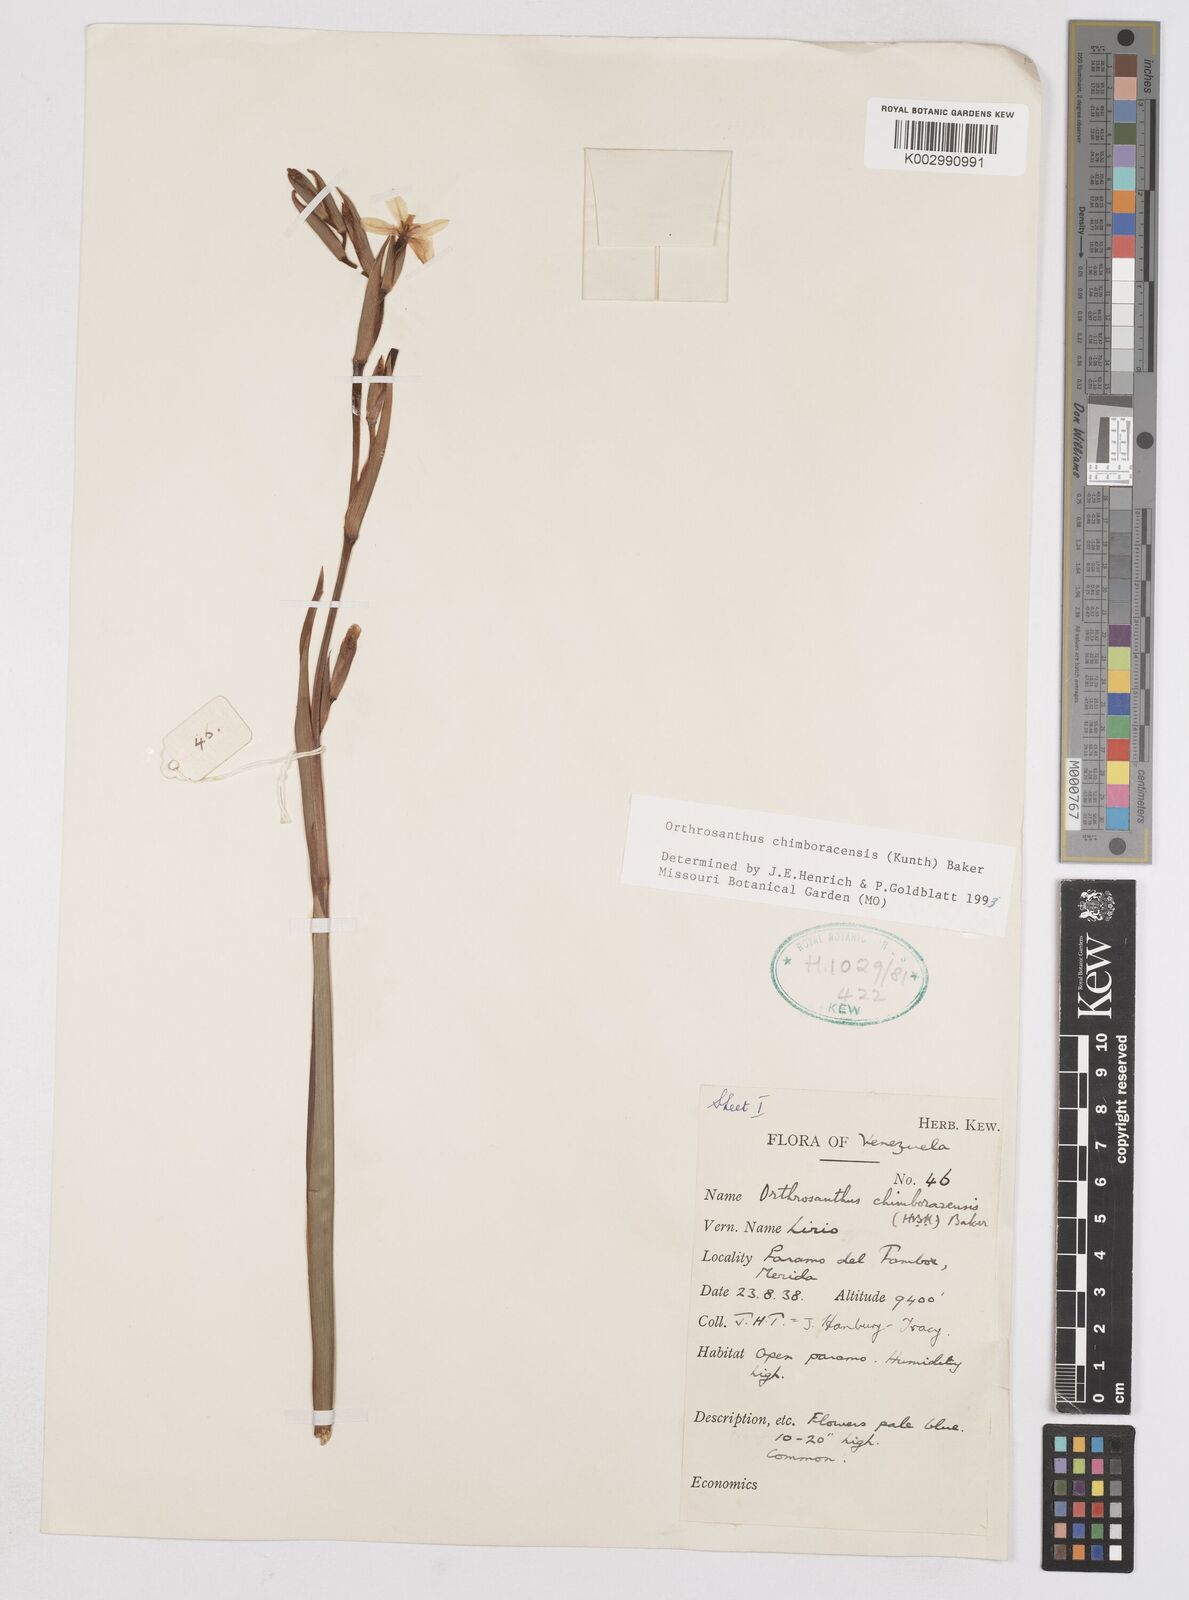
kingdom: Plantae
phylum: Tracheophyta
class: Liliopsida
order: Asparagales
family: Iridaceae
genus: Orthrosanthus
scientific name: Orthrosanthus chimboracensis
